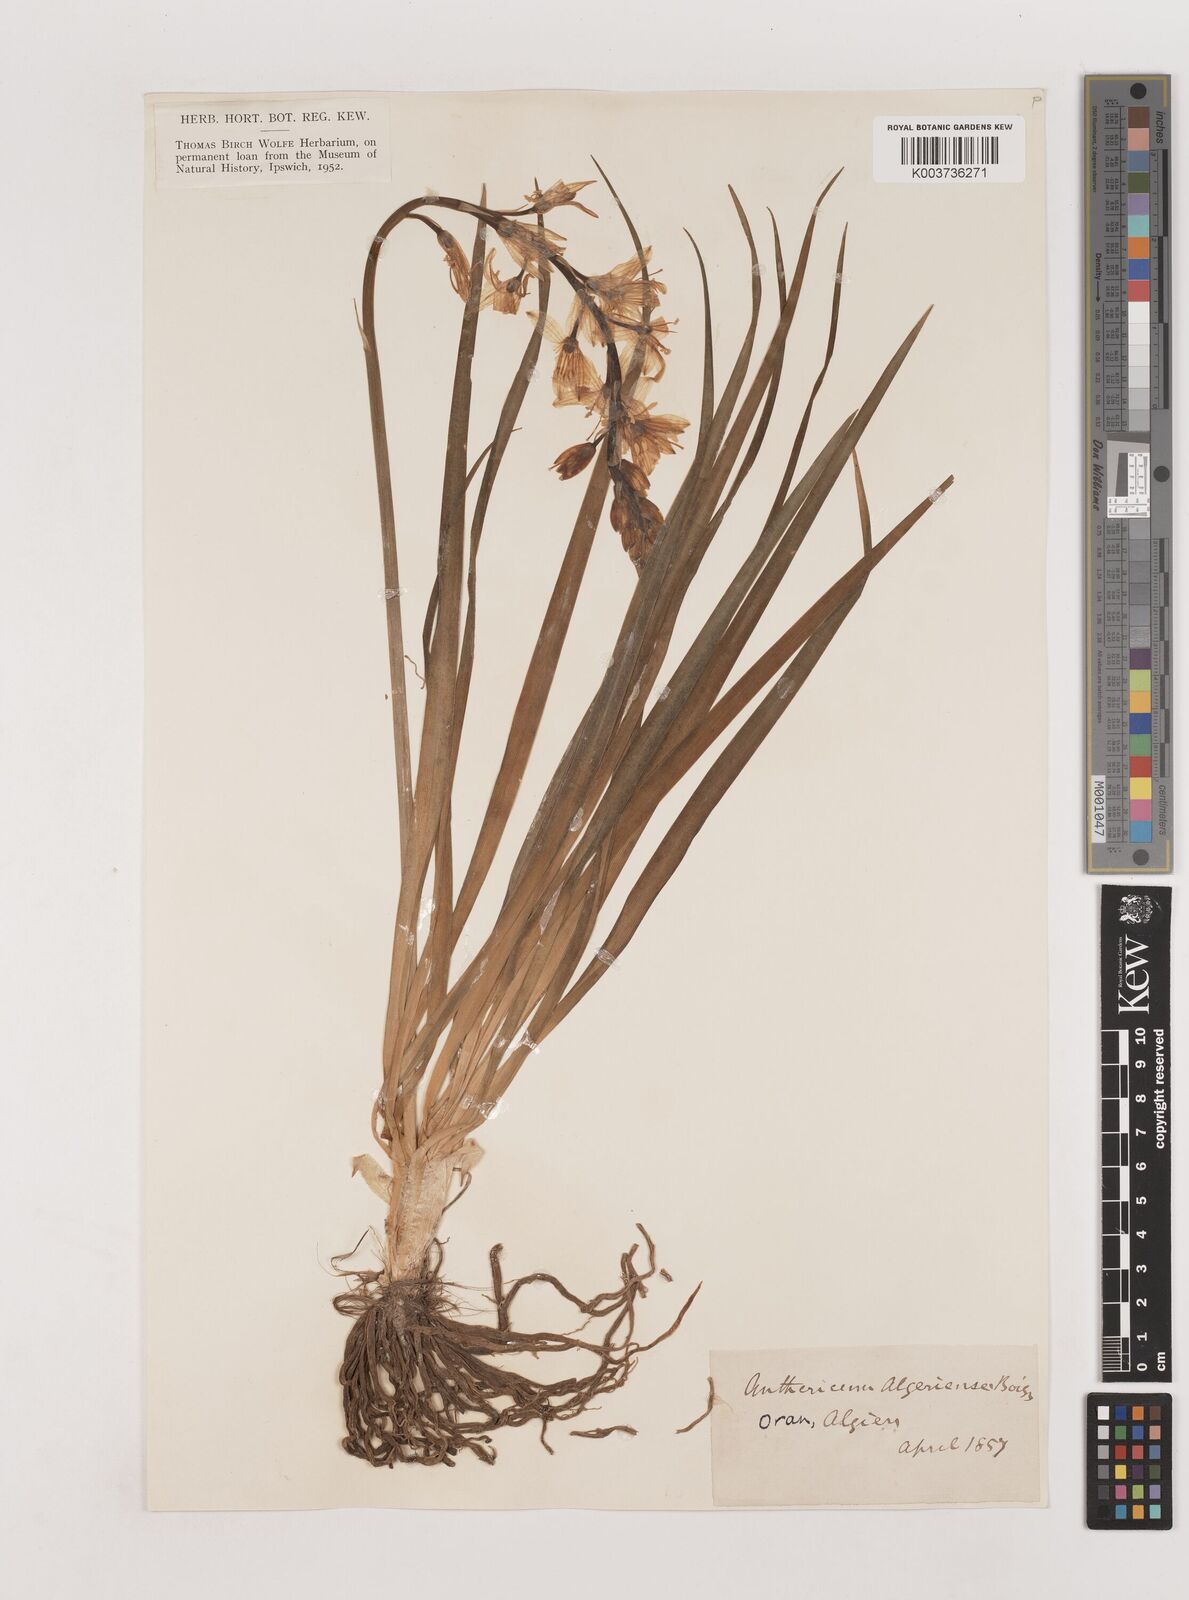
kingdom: Plantae
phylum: Tracheophyta
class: Liliopsida
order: Asparagales
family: Asparagaceae
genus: Anthericum
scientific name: Anthericum liliago
